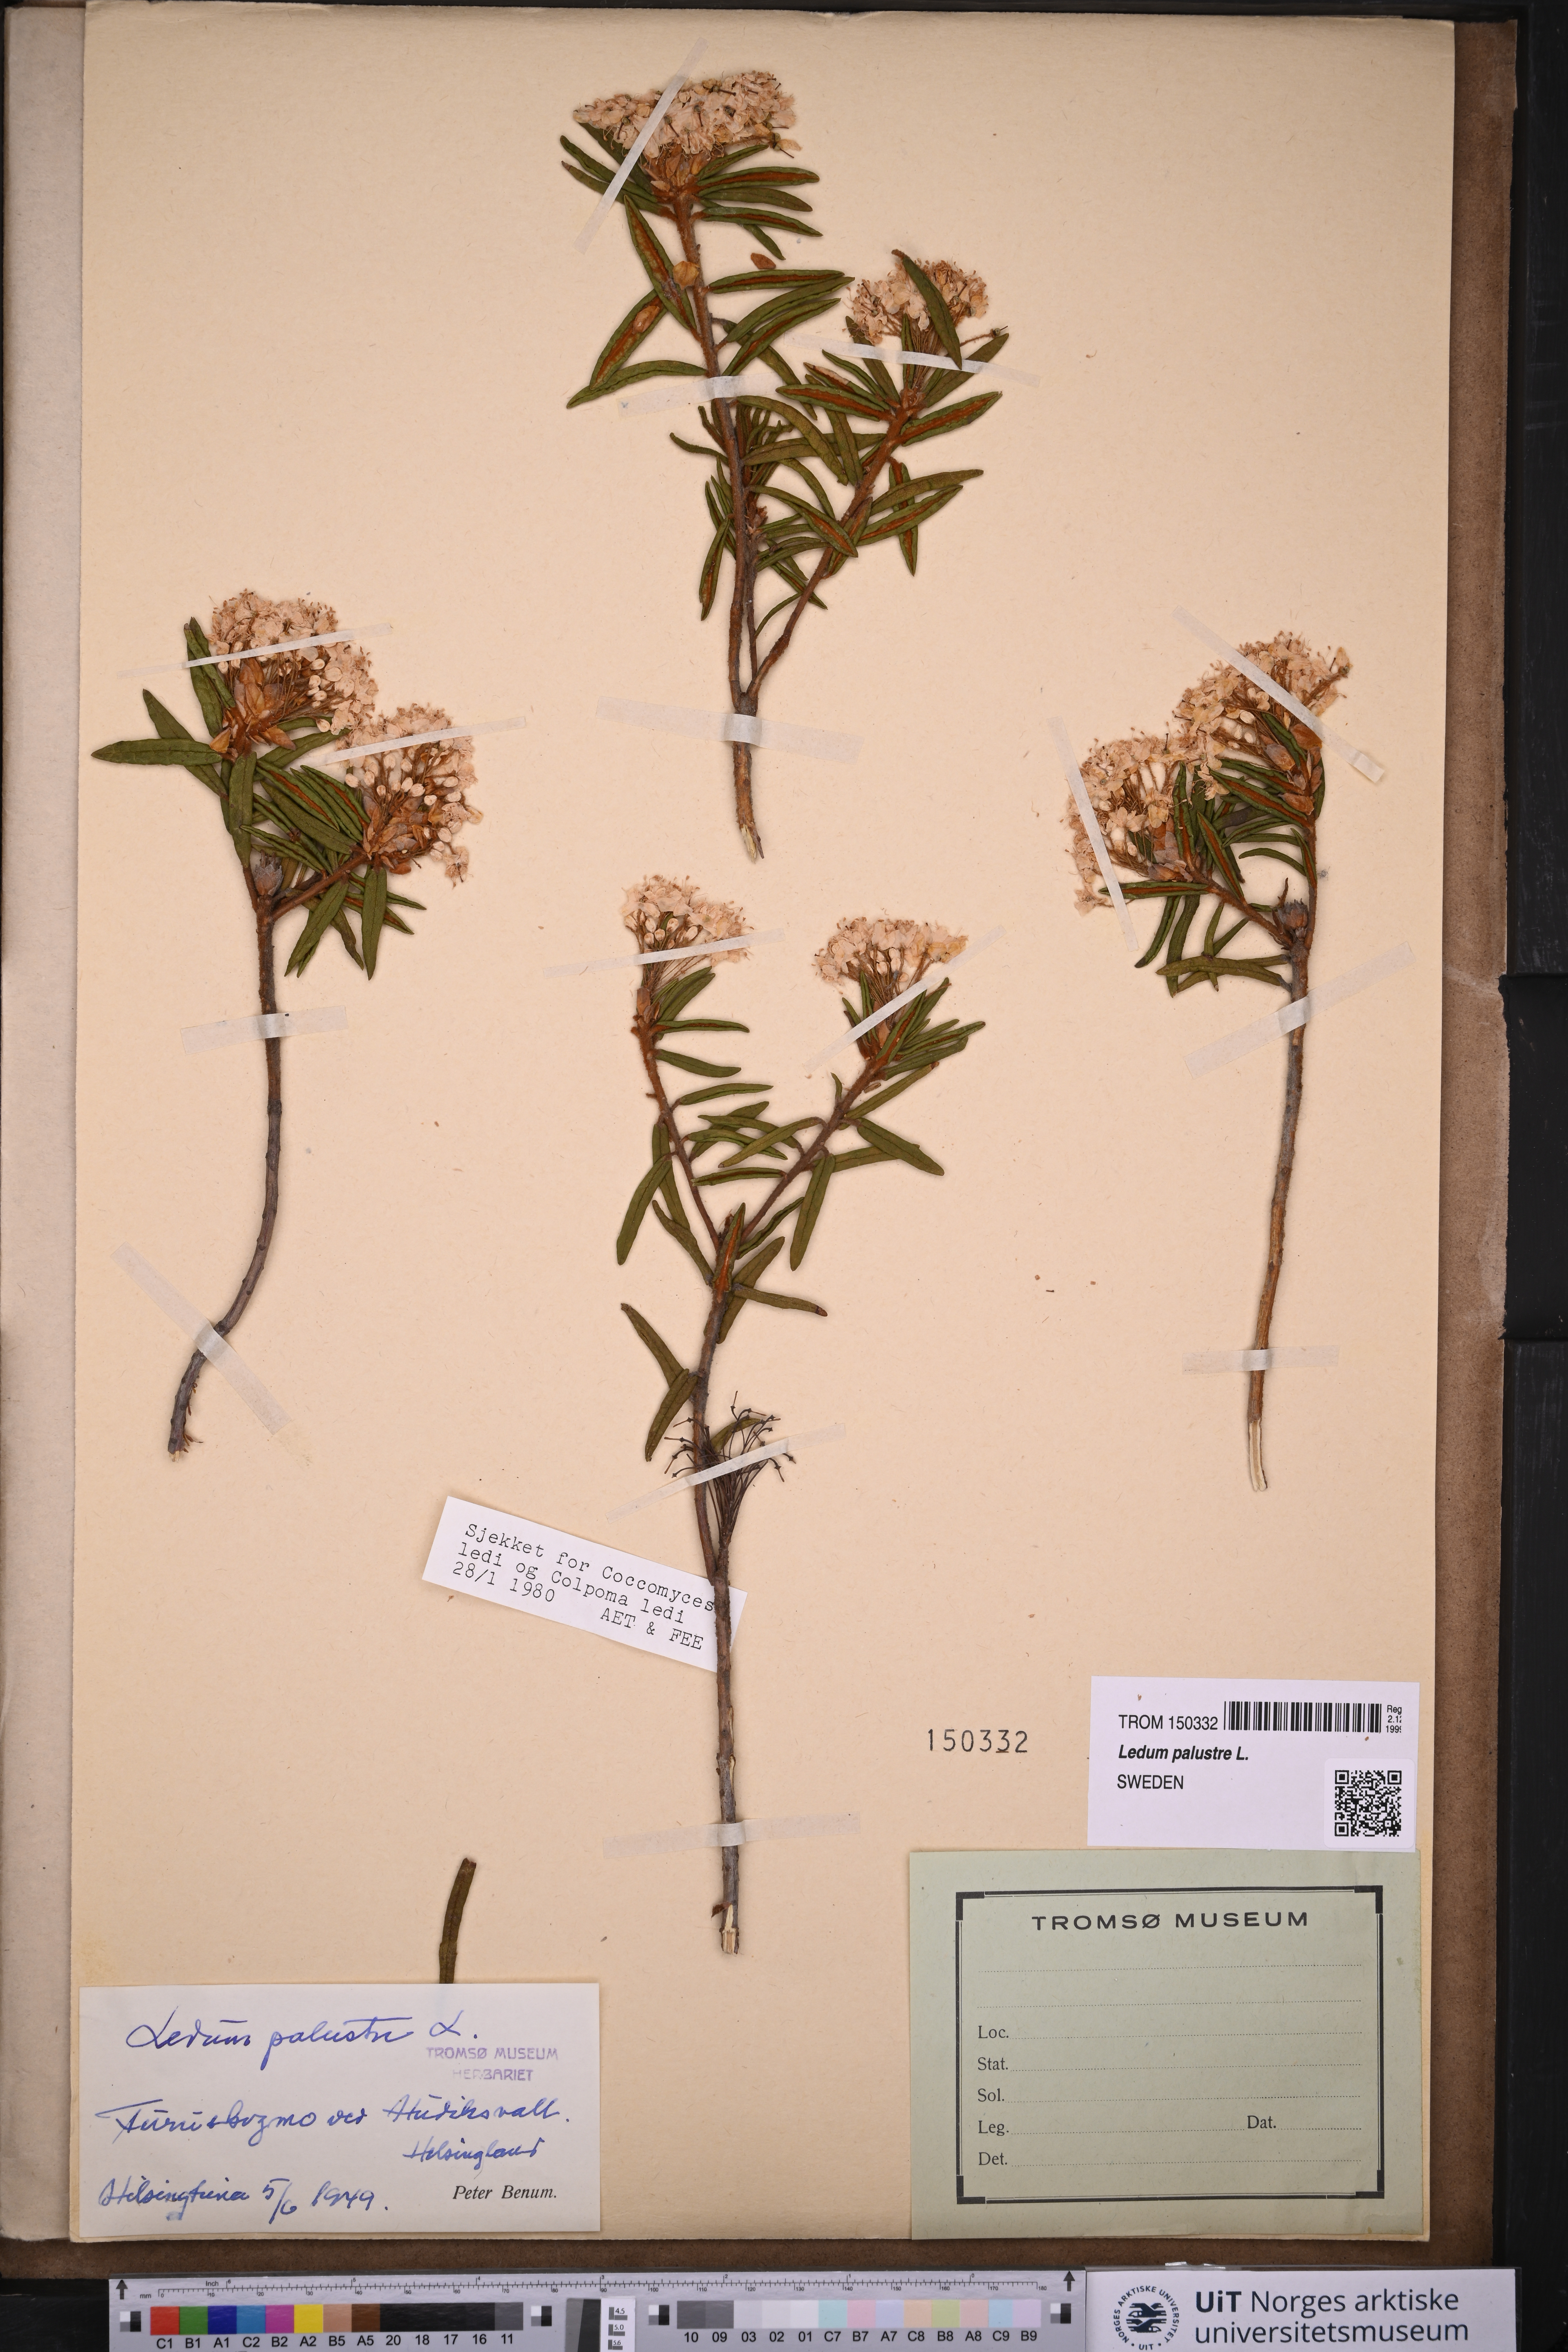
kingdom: Plantae
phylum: Tracheophyta
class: Magnoliopsida
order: Ericales
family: Ericaceae
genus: Rhododendron
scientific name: Rhododendron tomentosum
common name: Marsh labrador tea
